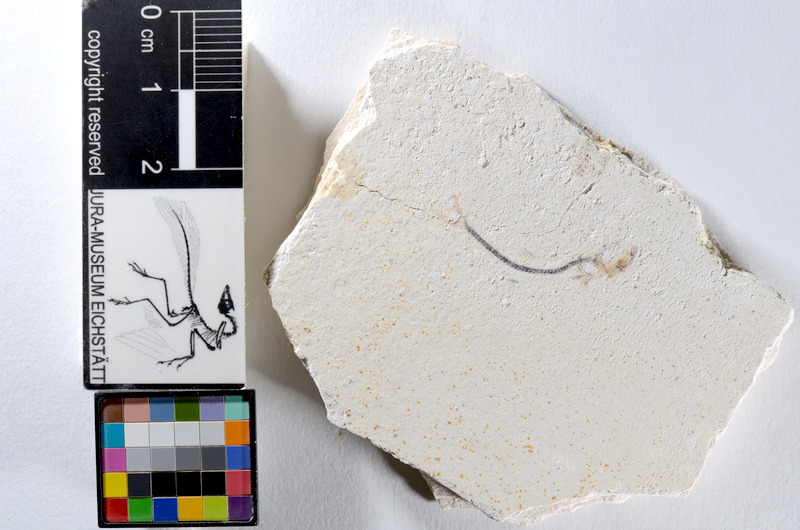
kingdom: Animalia
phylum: Chordata
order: Salmoniformes
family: Orthogonikleithridae
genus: Orthogonikleithrus
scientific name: Orthogonikleithrus hoelli
